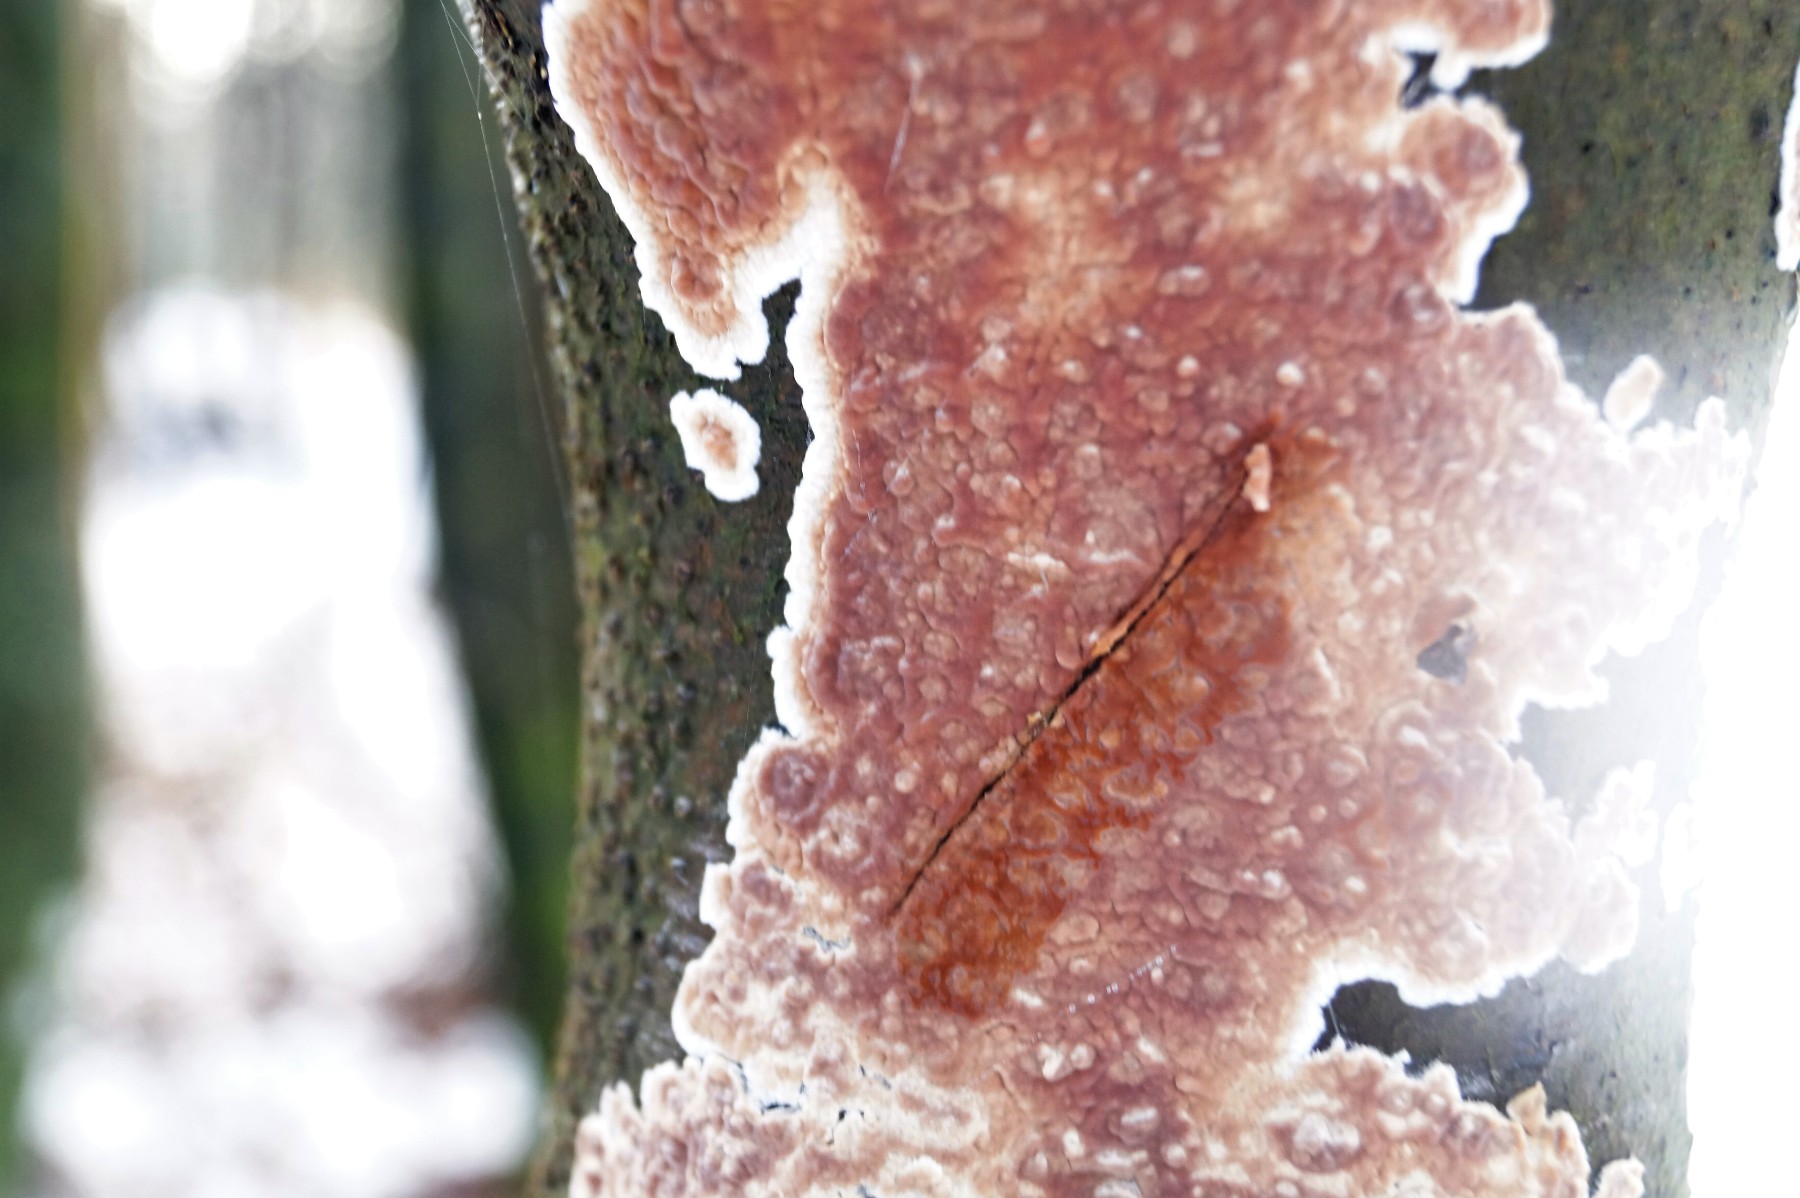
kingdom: Fungi
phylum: Basidiomycota
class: Agaricomycetes
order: Russulales
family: Stereaceae
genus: Stereum
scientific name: Stereum rugosum
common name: rynket lædersvamp
